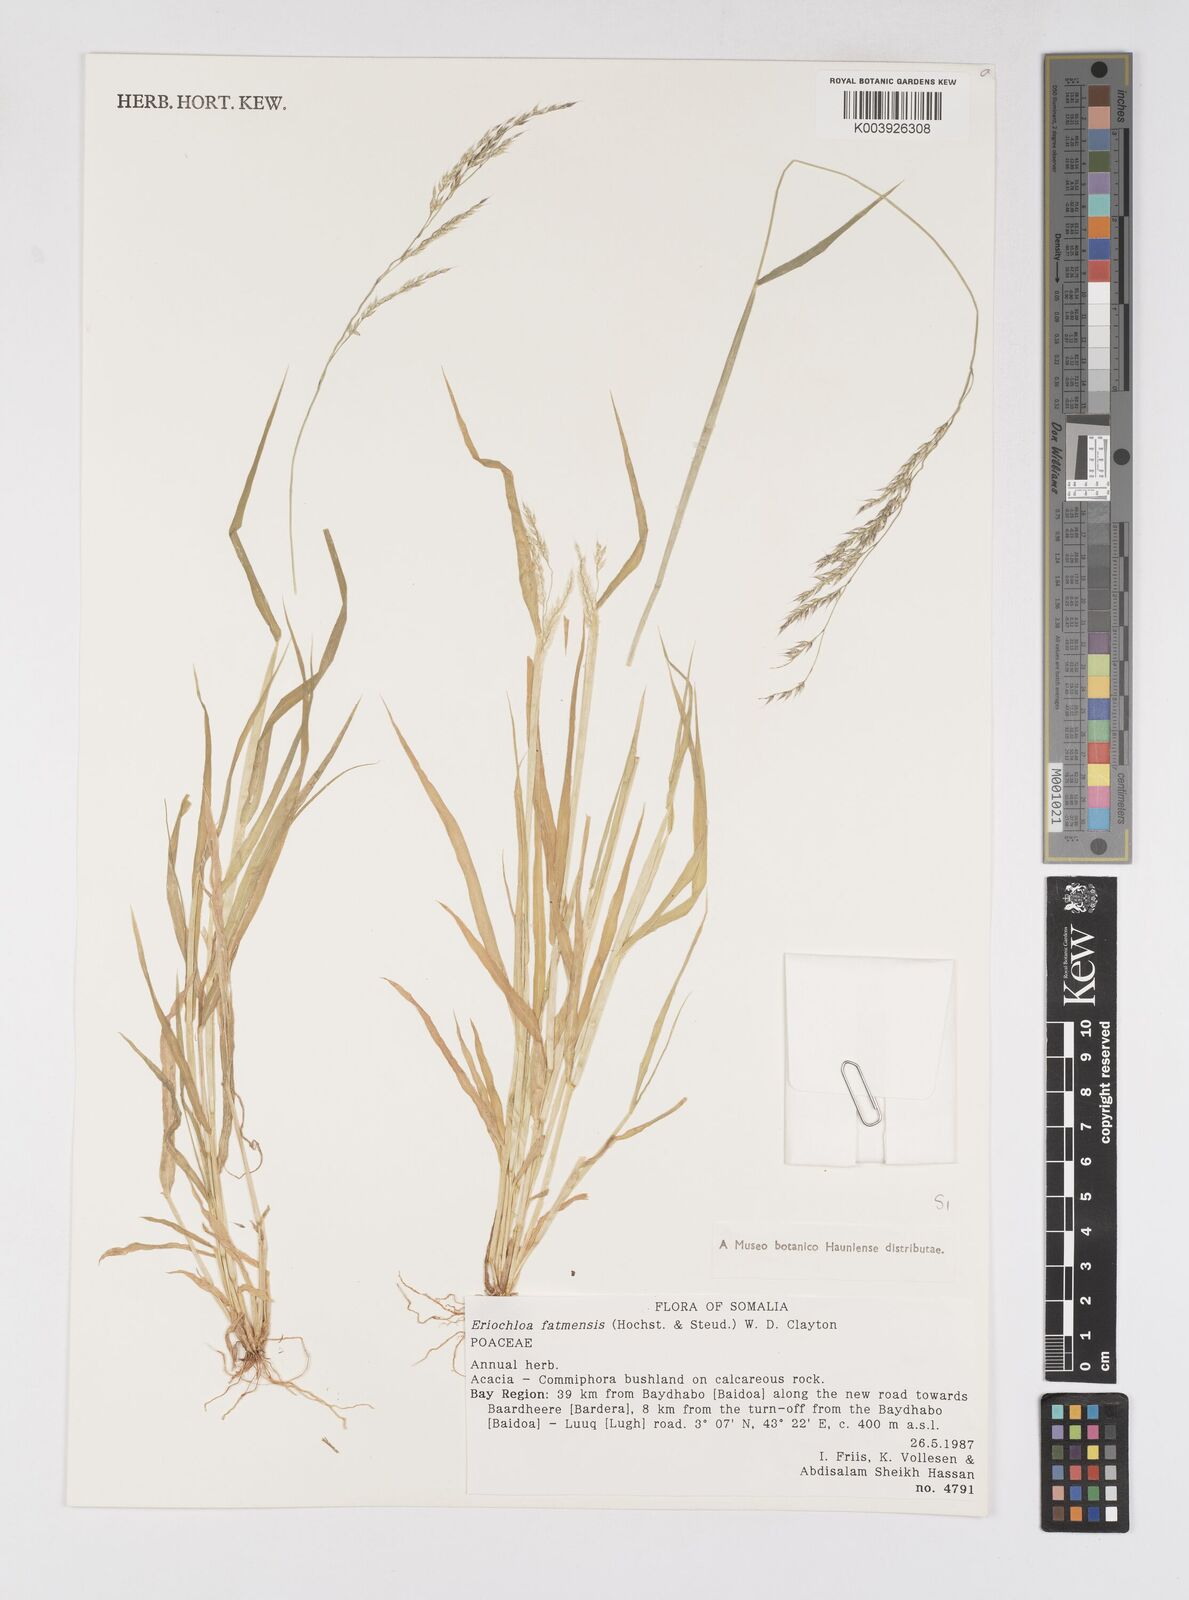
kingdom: Plantae
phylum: Tracheophyta
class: Liliopsida
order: Poales
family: Poaceae
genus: Eriochloa
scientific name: Eriochloa barbatus
